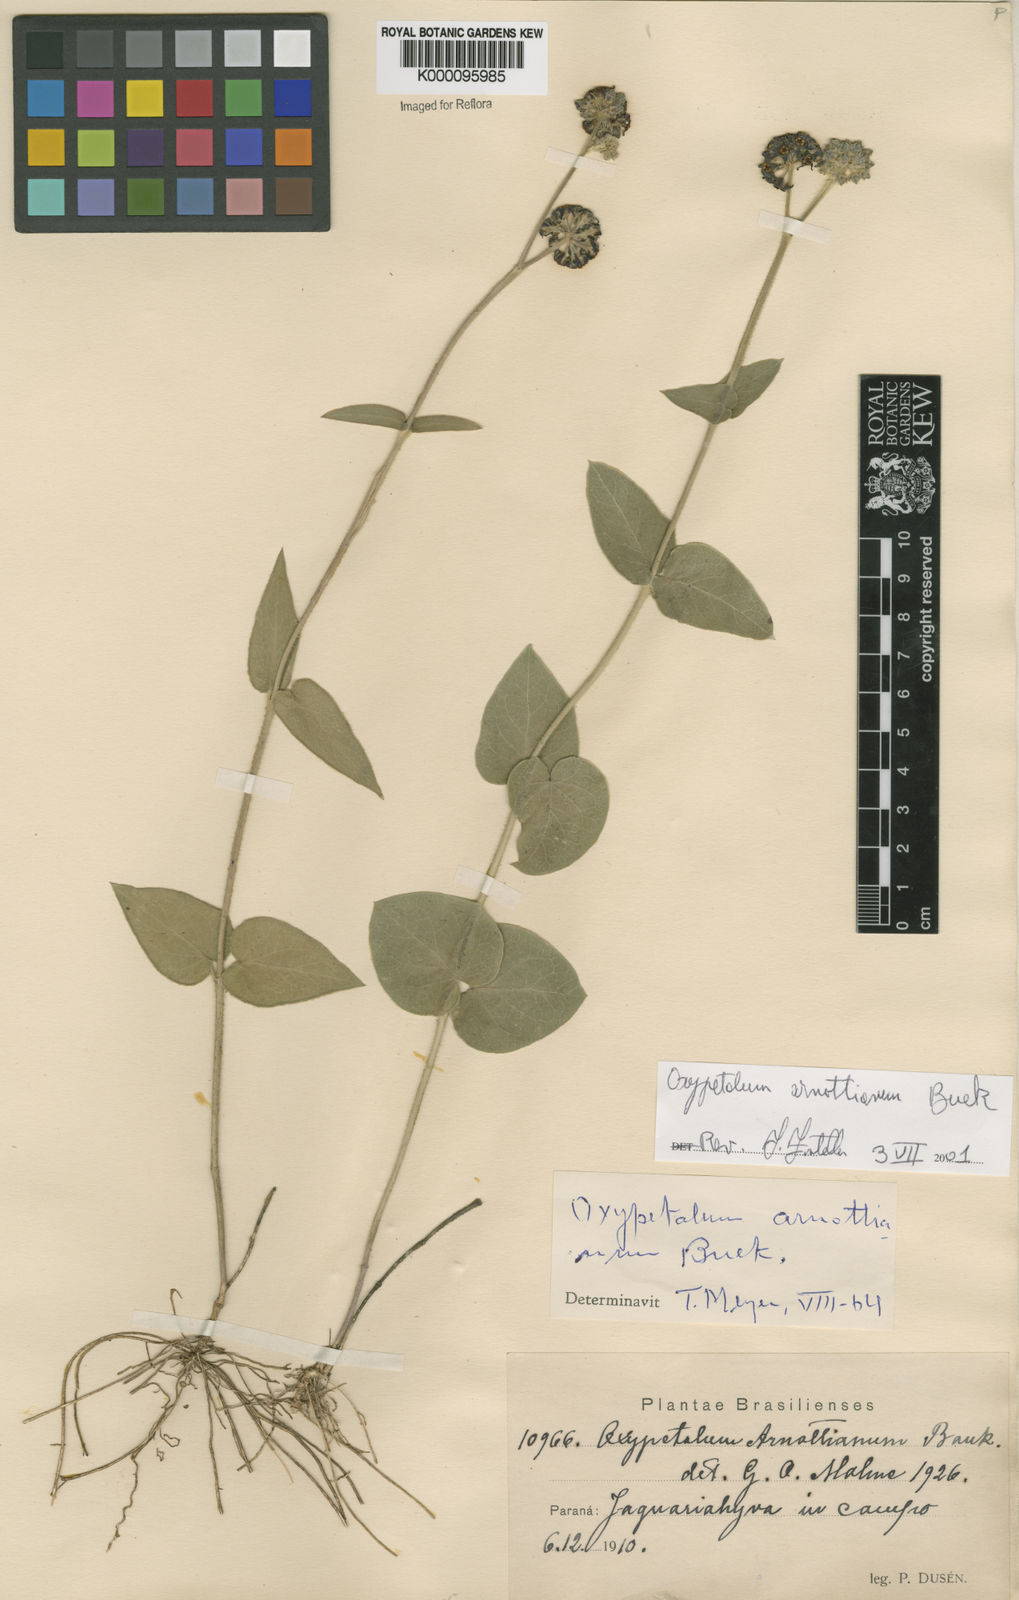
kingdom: Plantae
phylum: Tracheophyta
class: Magnoliopsida
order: Gentianales
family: Apocynaceae
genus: Oxypetalum
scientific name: Oxypetalum arnottianum
